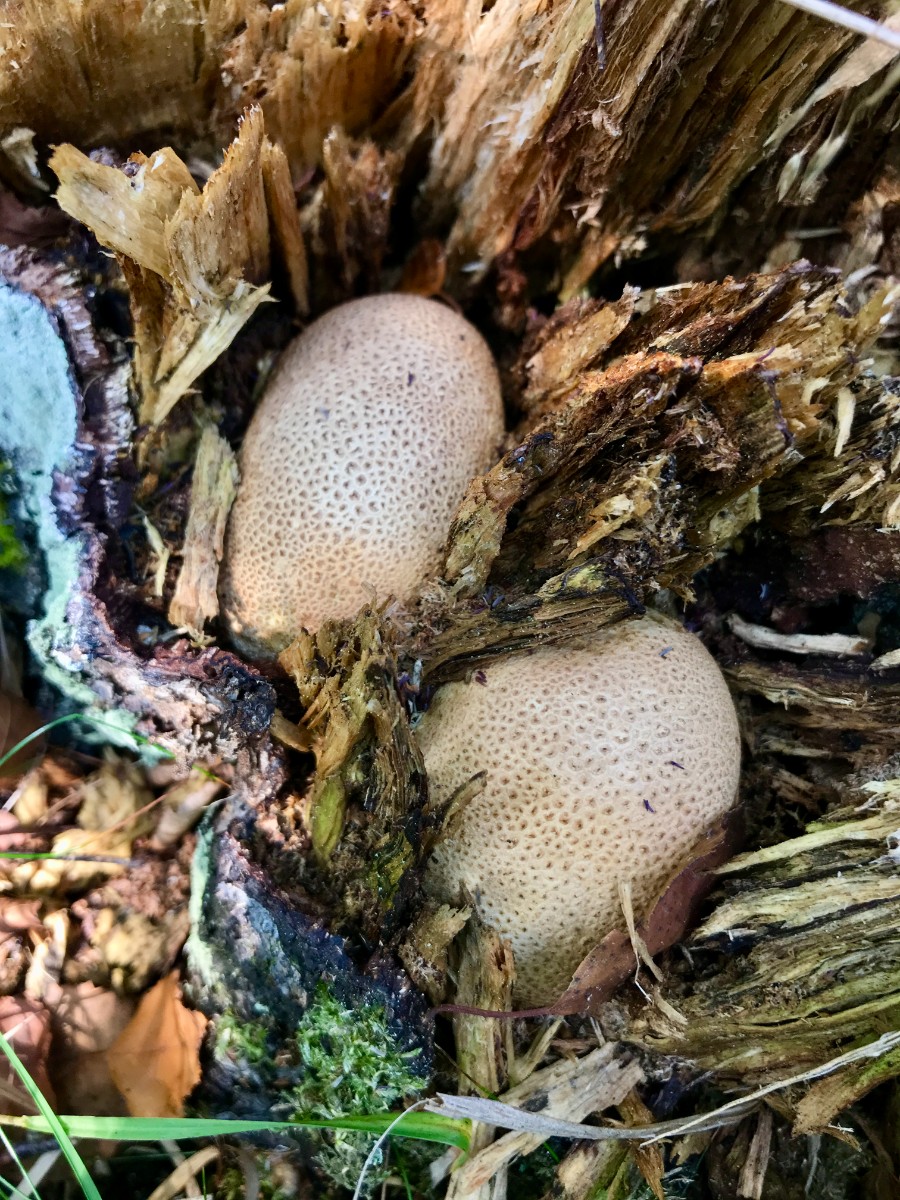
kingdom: Fungi
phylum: Basidiomycota
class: Agaricomycetes
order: Boletales
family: Sclerodermataceae
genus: Scleroderma
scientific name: Scleroderma citrinum
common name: almindelig bruskbold
